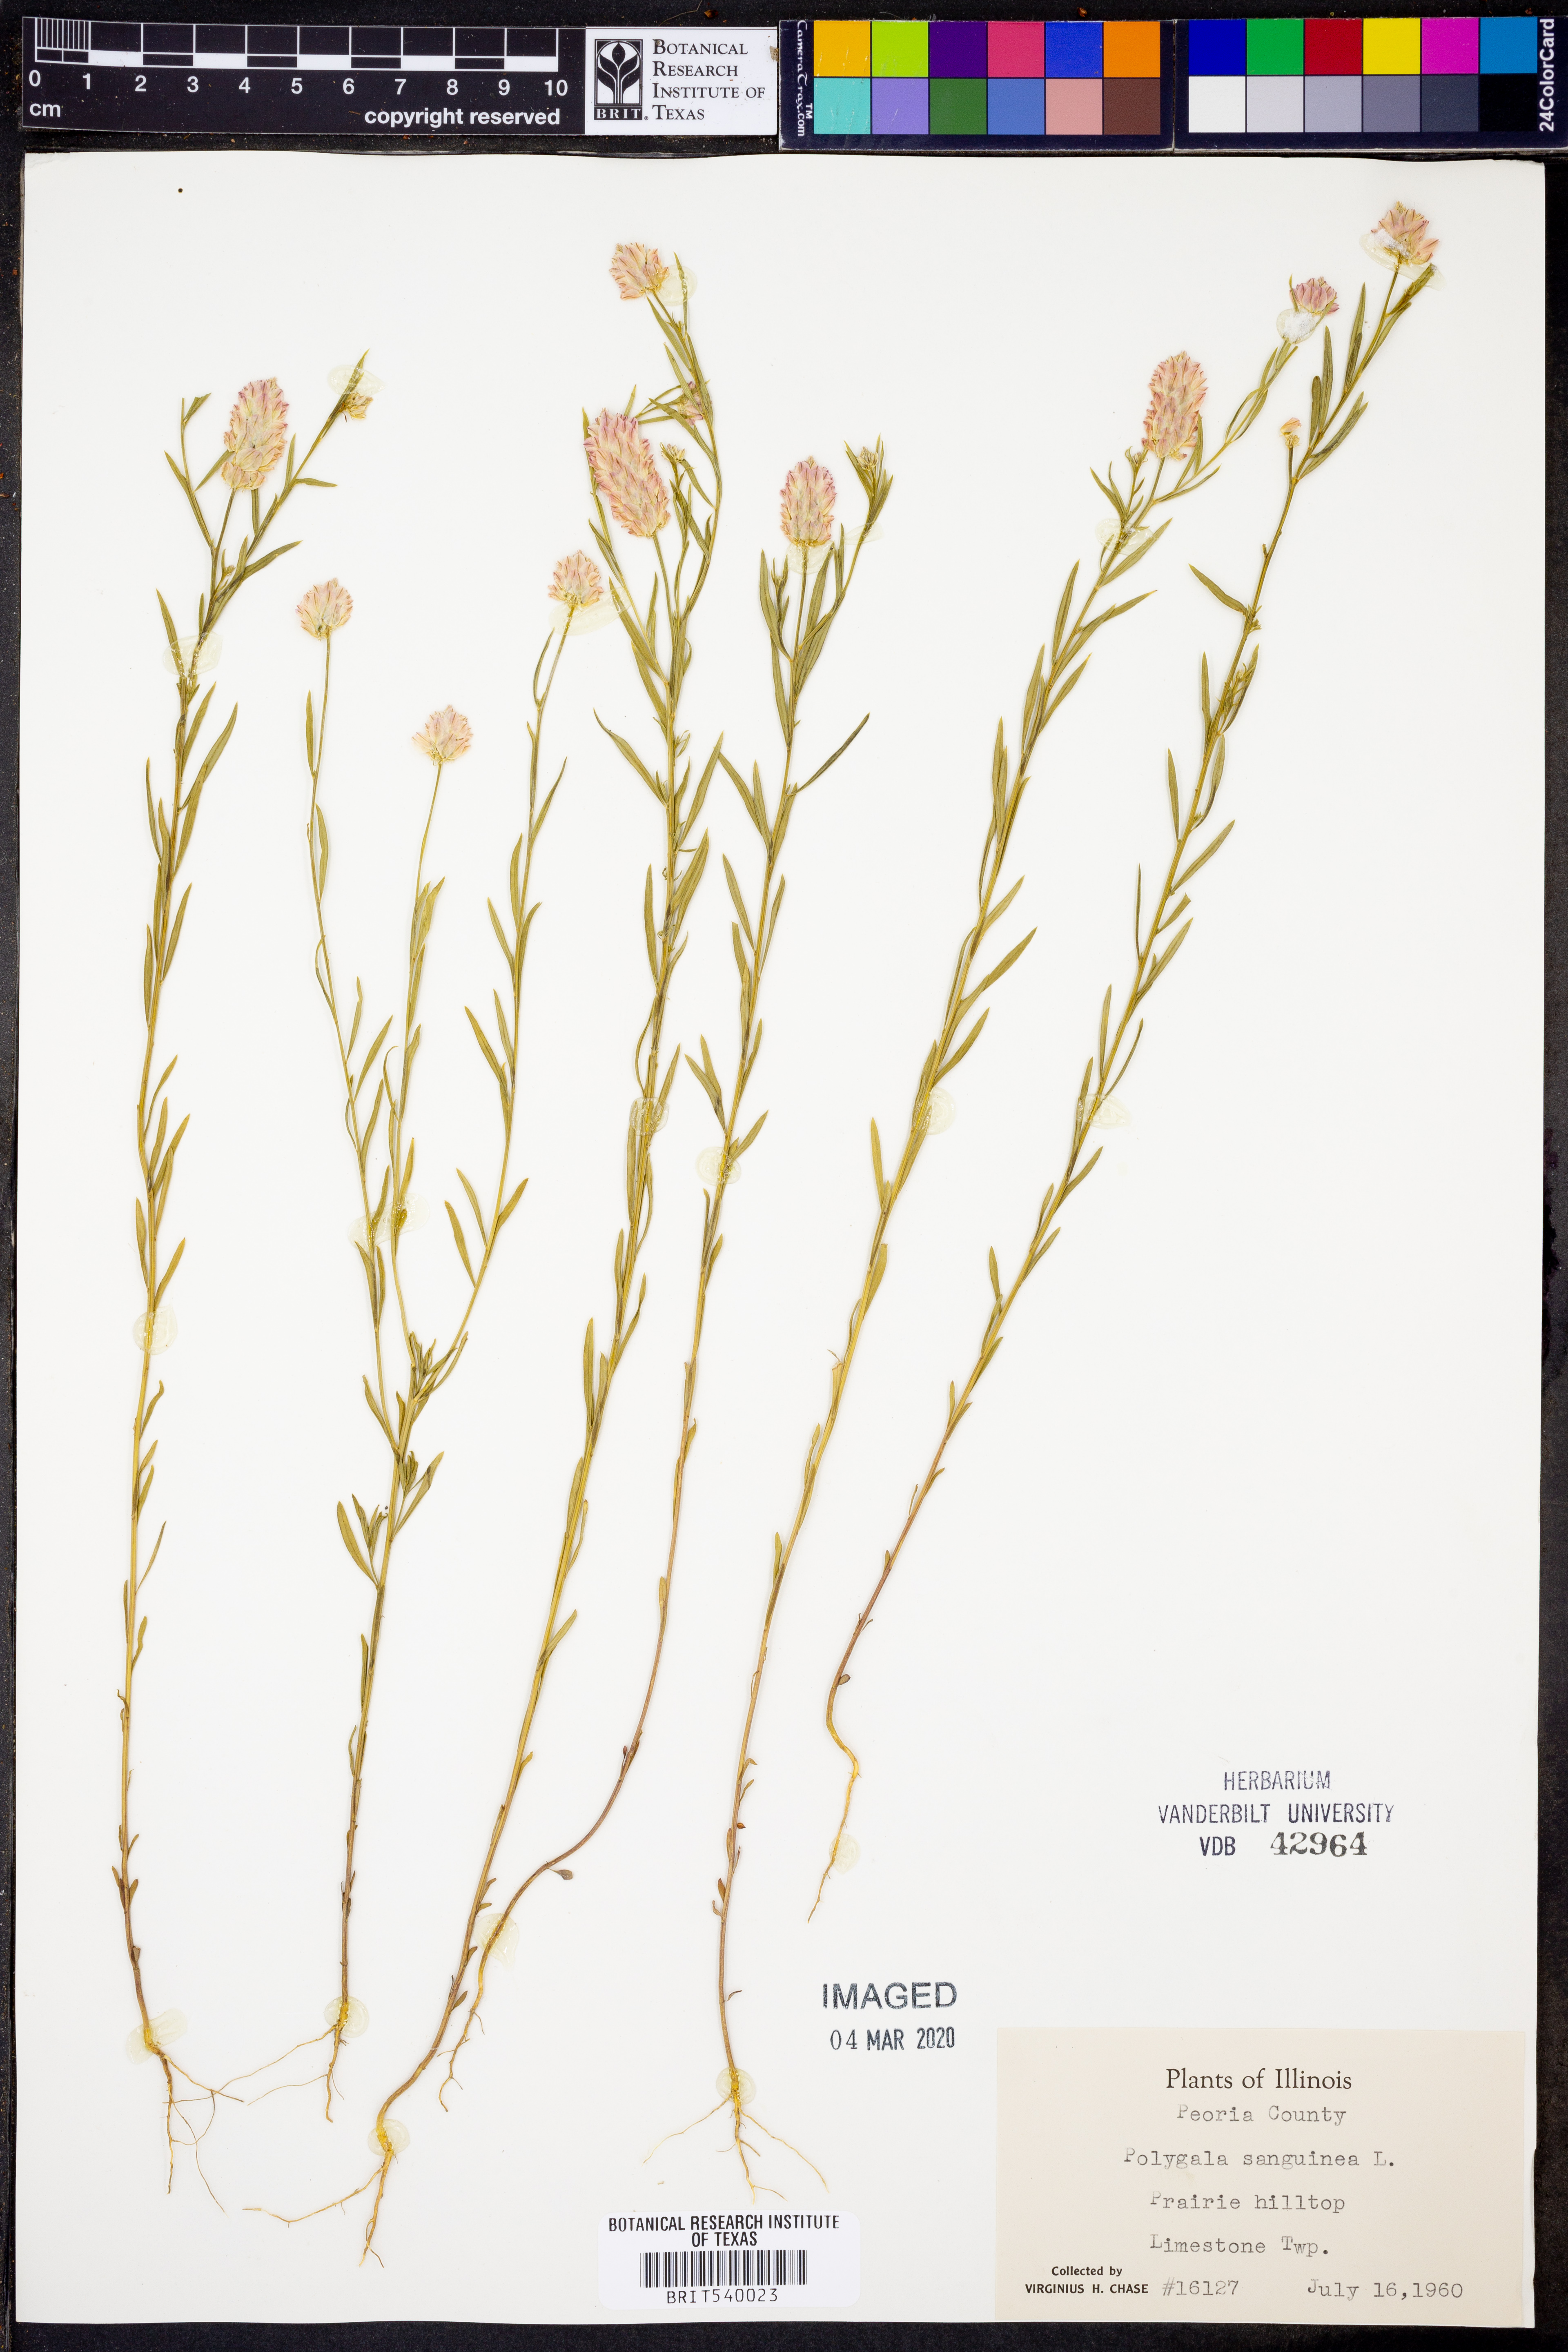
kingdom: Plantae
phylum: Tracheophyta
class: Magnoliopsida
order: Fabales
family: Polygalaceae
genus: Polygala
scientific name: Polygala sanguinea
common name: Blood milkwort
